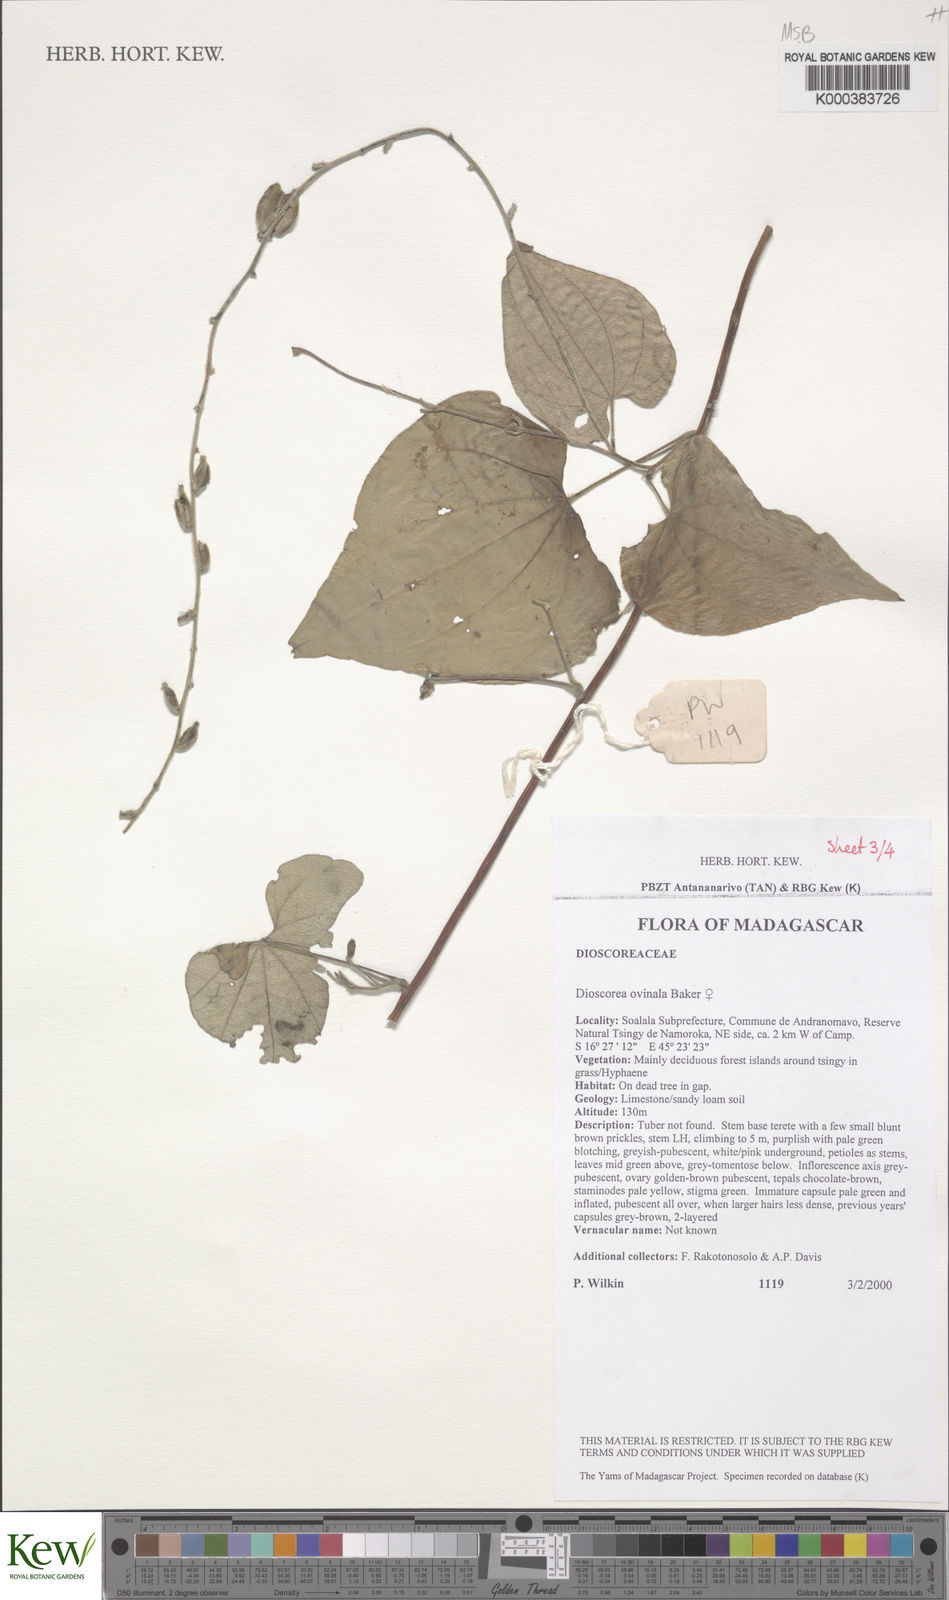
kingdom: Plantae
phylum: Tracheophyta
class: Liliopsida
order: Dioscoreales
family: Dioscoreaceae
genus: Dioscorea
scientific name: Dioscorea ovinala
